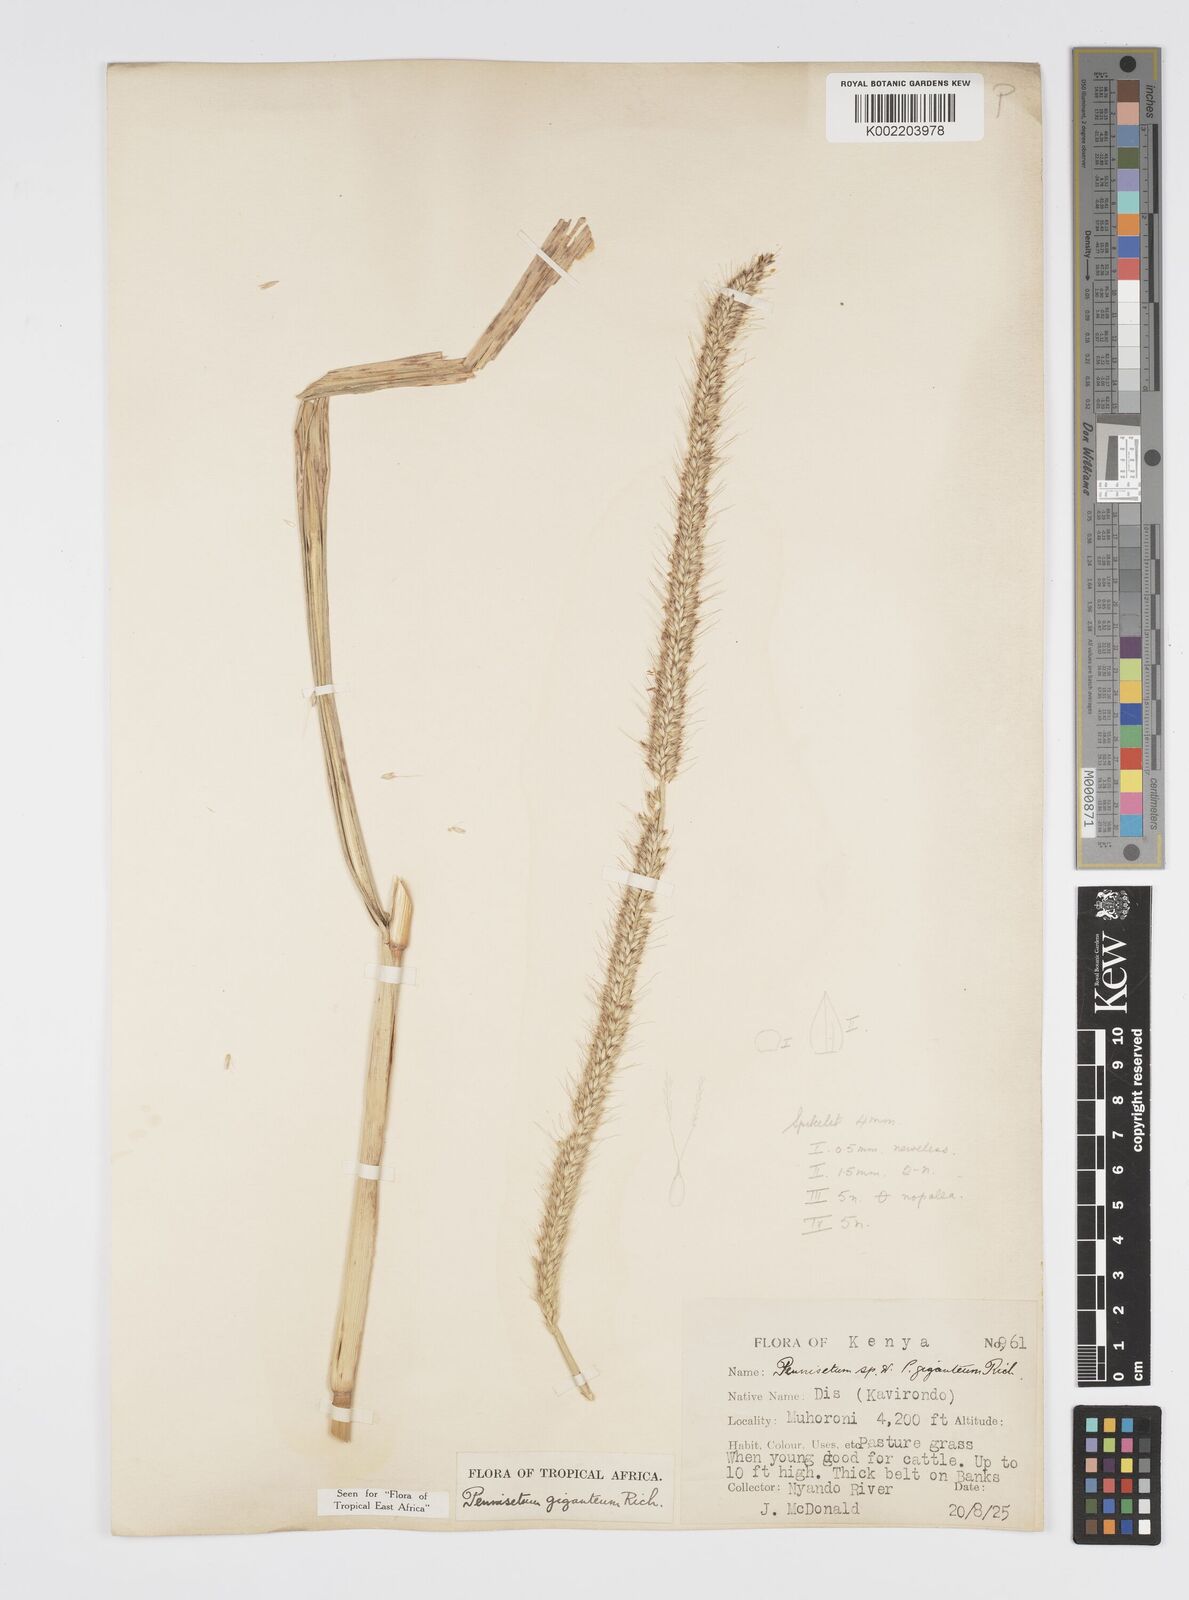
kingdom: Plantae
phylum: Tracheophyta
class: Liliopsida
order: Poales
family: Poaceae
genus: Cenchrus
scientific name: Cenchrus caudatus
